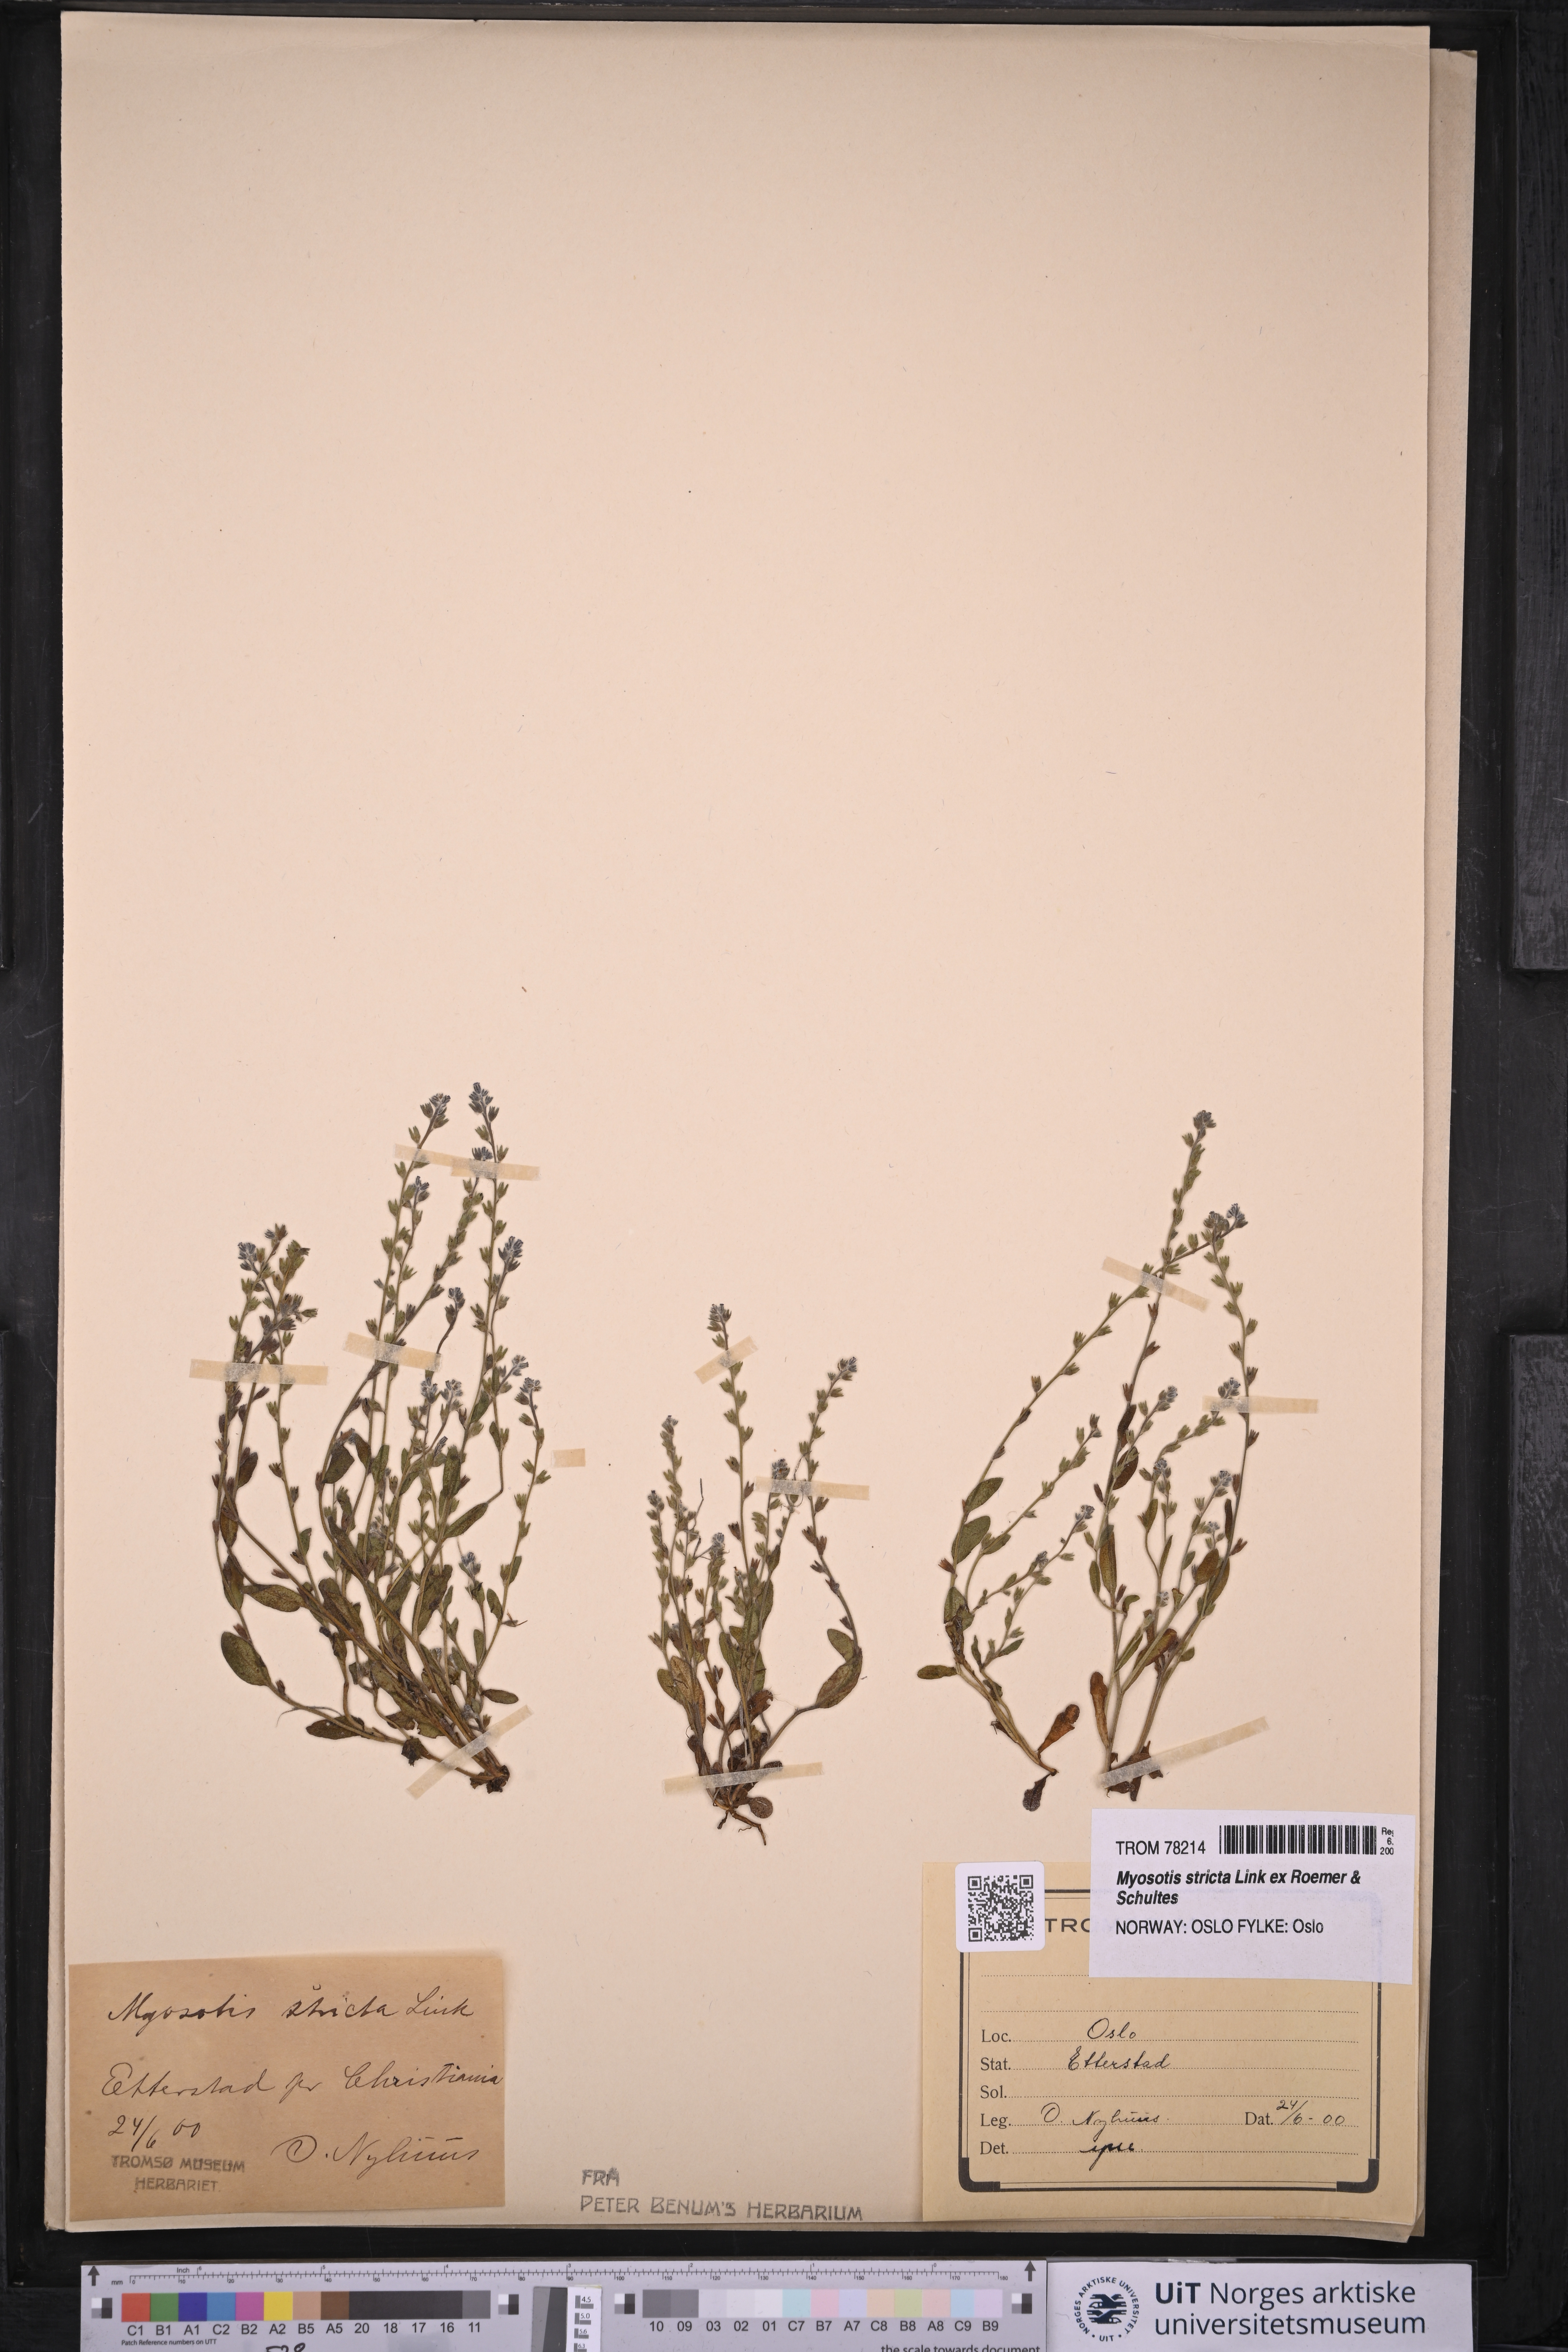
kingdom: Plantae
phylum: Tracheophyta
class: Magnoliopsida
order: Boraginales
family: Boraginaceae
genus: Myosotis
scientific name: Myosotis stricta
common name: Strict forget-me-not
